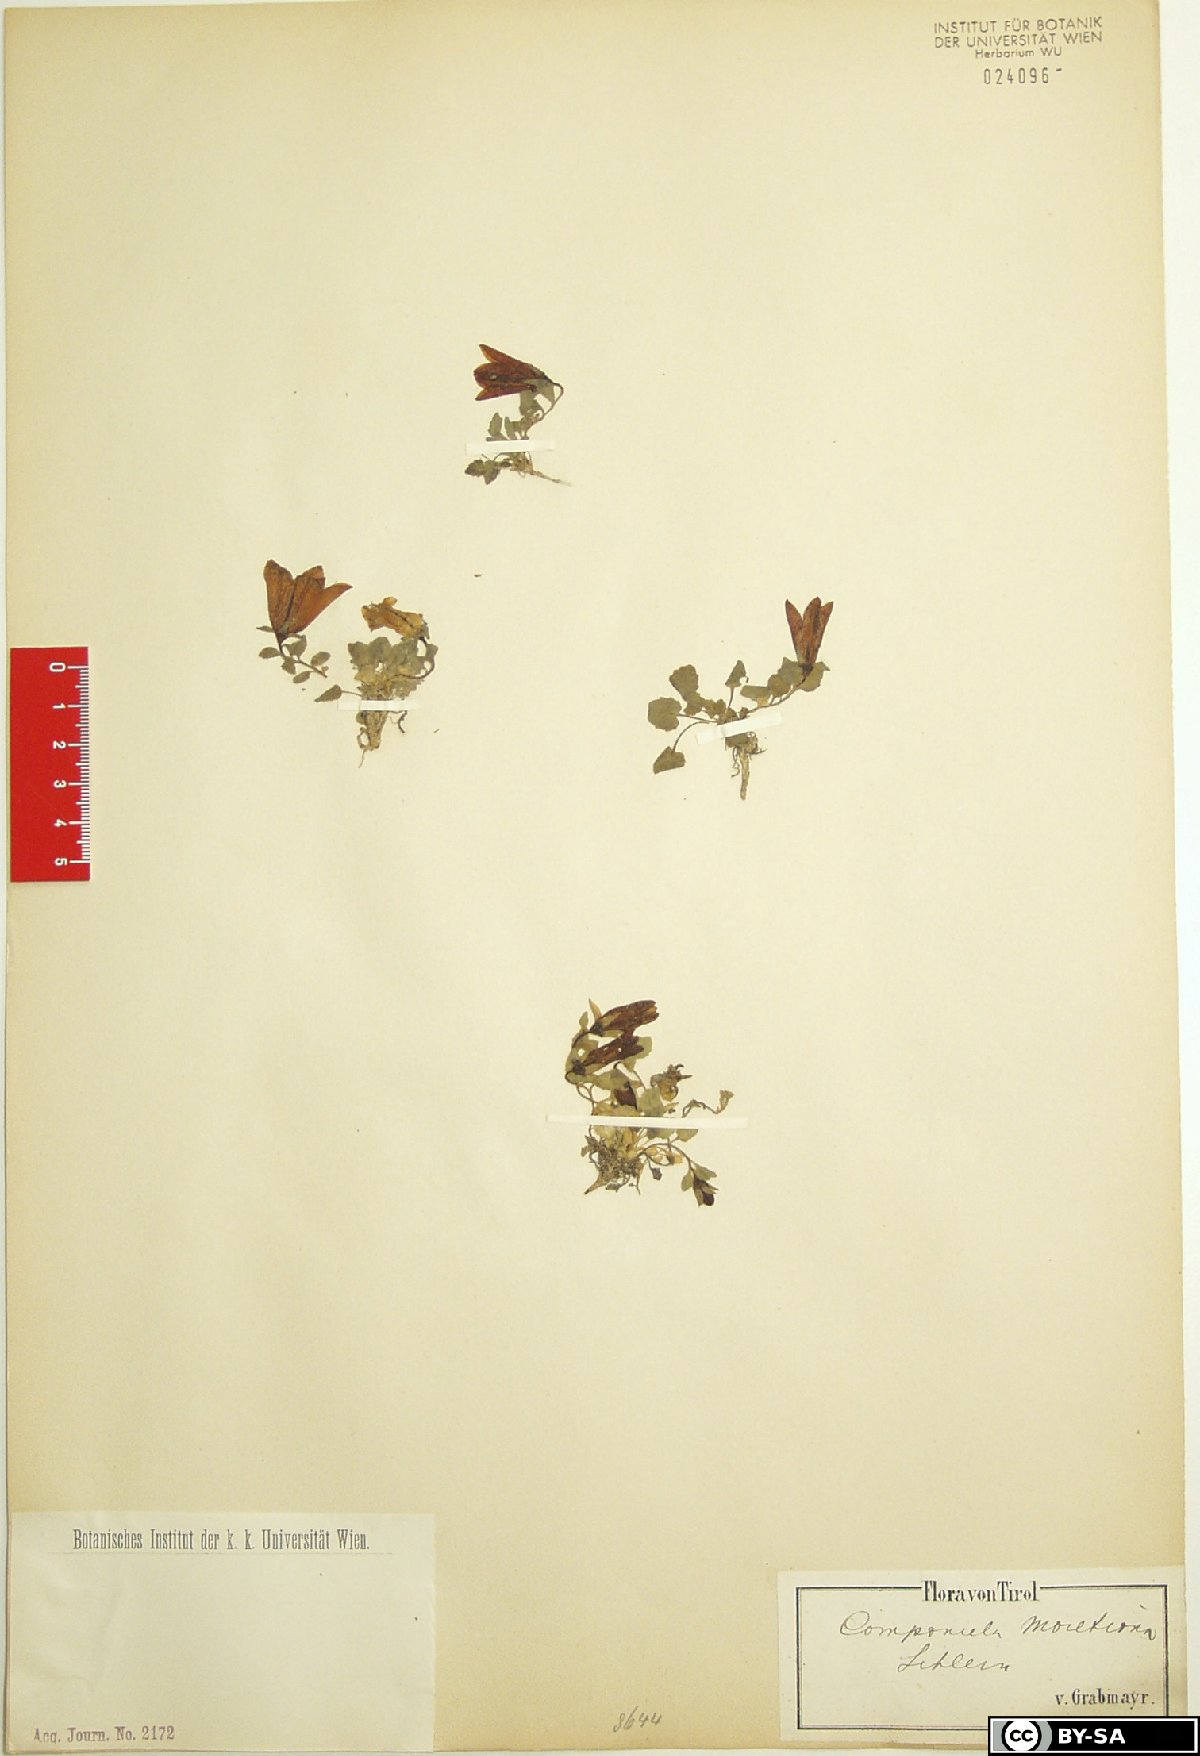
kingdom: Plantae
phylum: Tracheophyta
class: Magnoliopsida
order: Asterales
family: Campanulaceae
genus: Campanula
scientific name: Campanula morettiana
